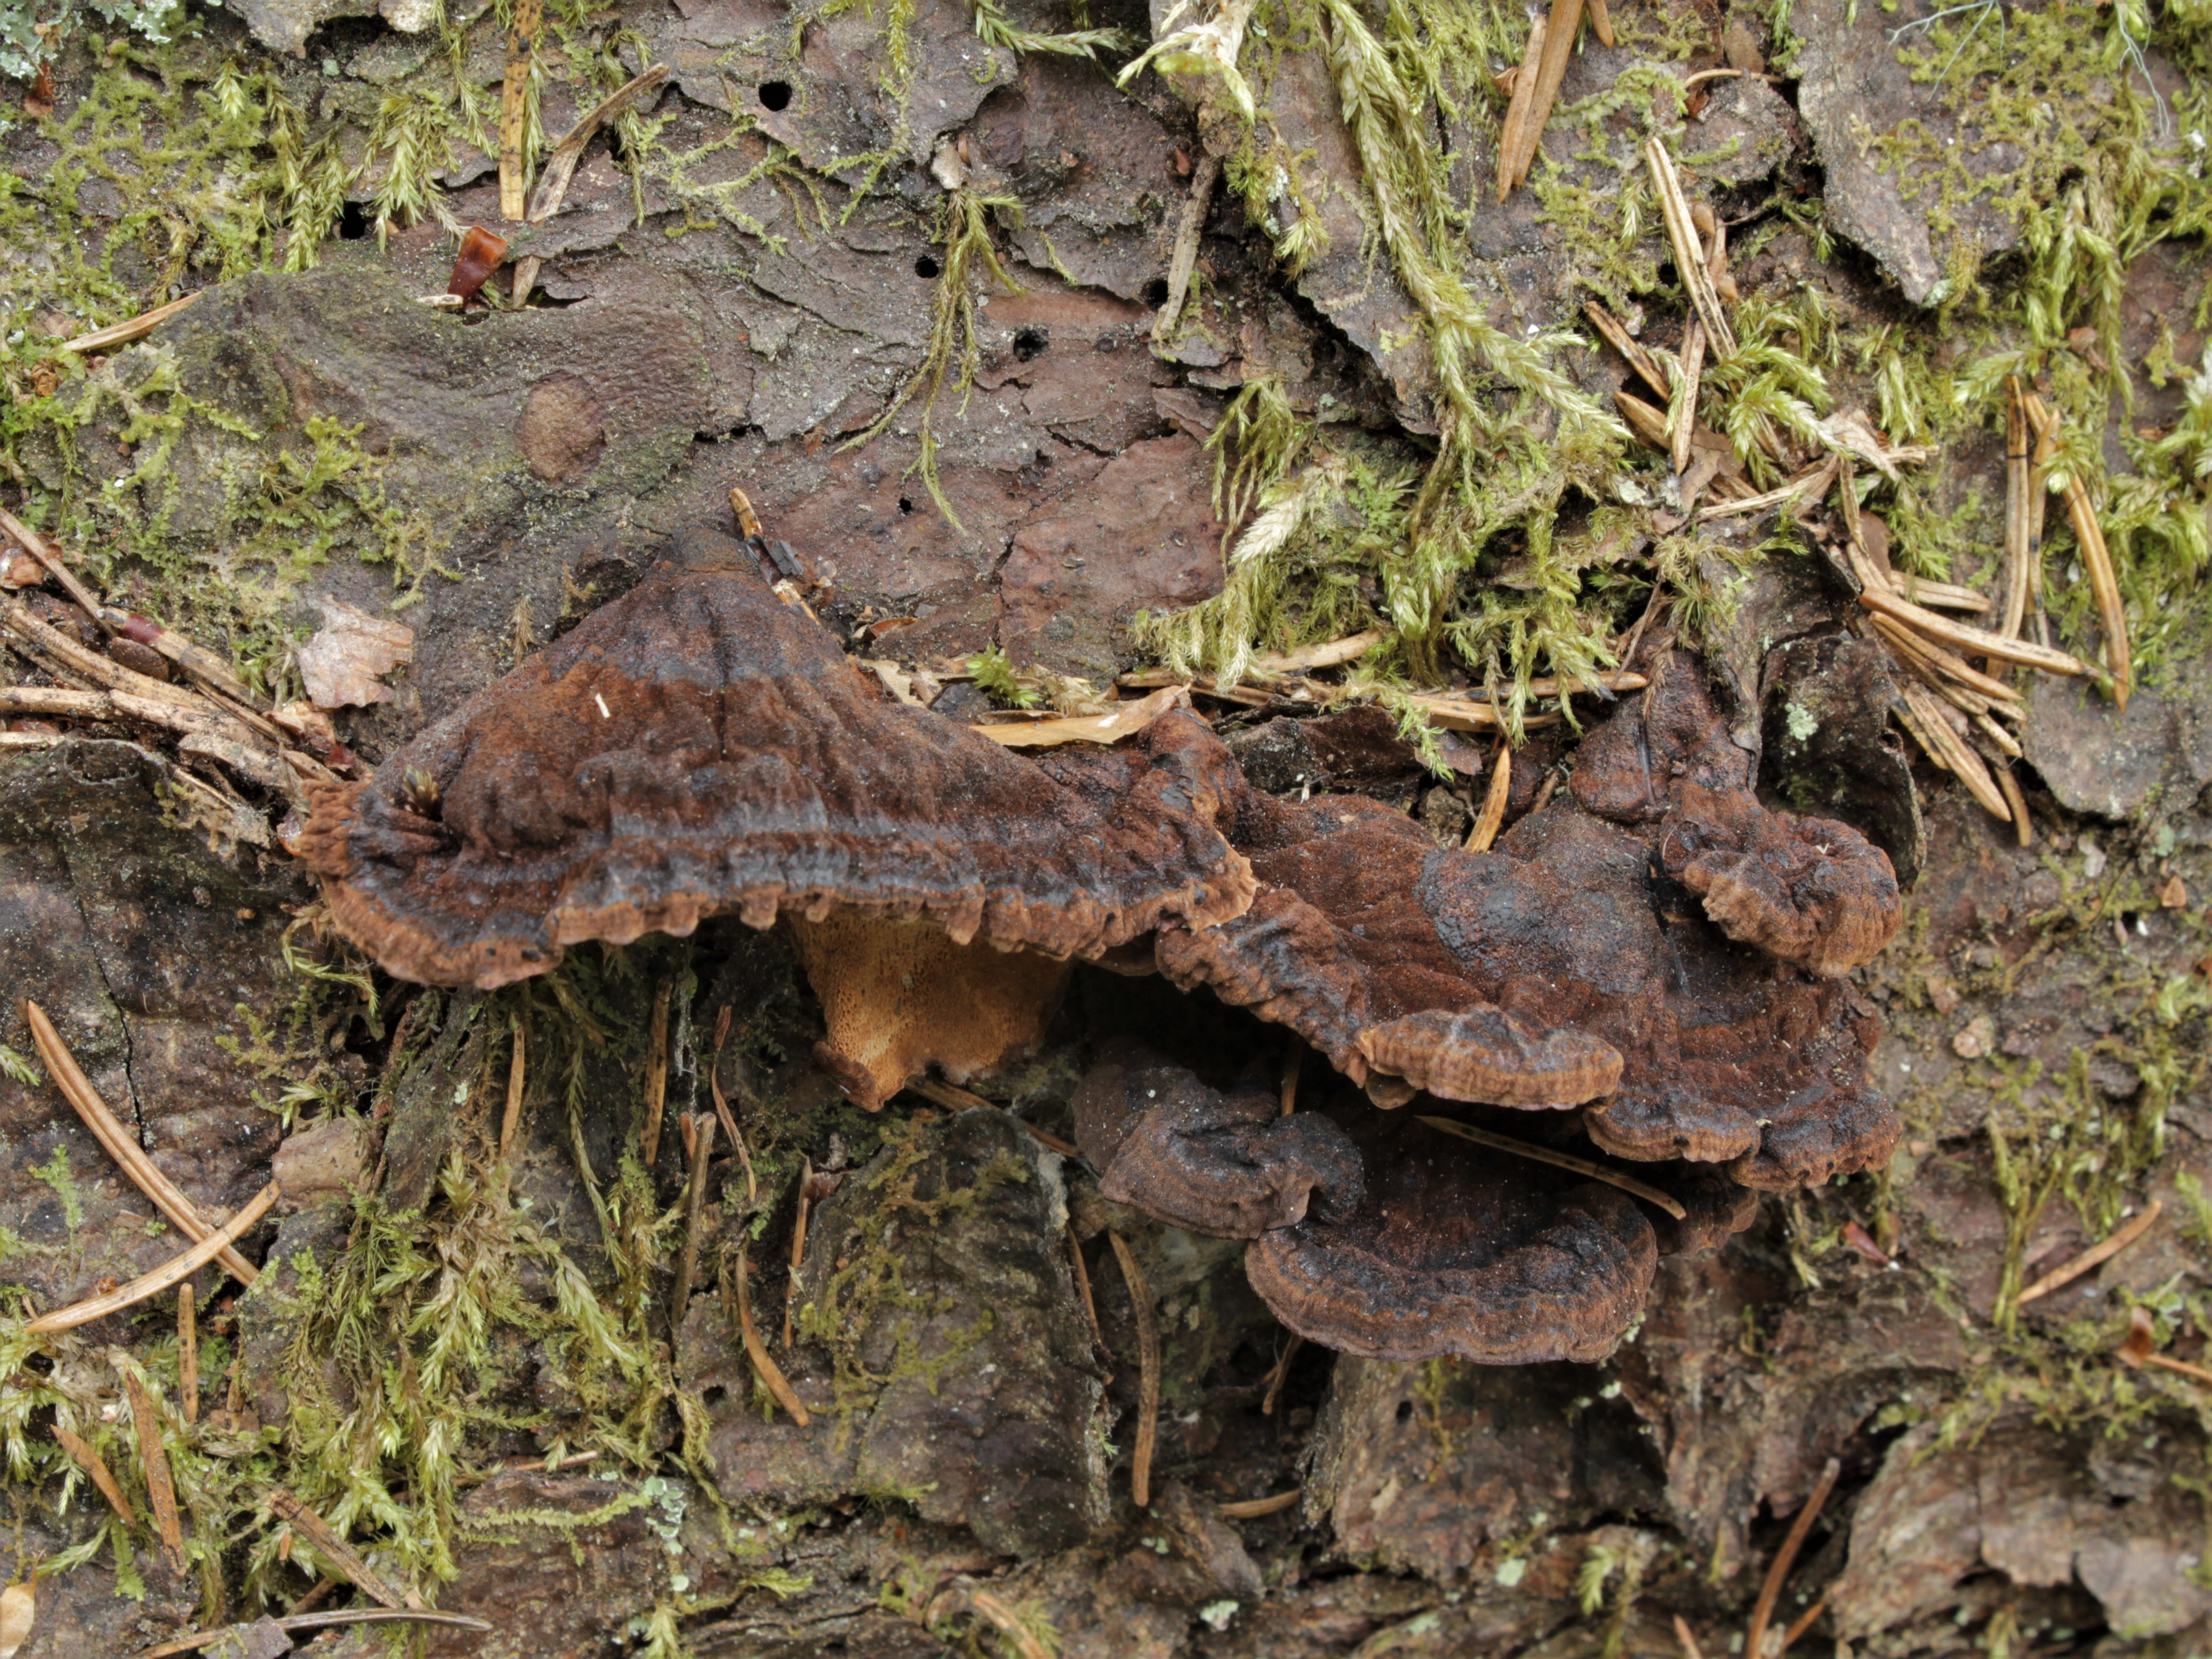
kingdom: Fungi
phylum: Basidiomycota
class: Agaricomycetes
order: Polyporales
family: Ischnodermataceae
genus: Ischnoderma
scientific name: Ischnoderma benzoinum
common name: Benzoin bracket
